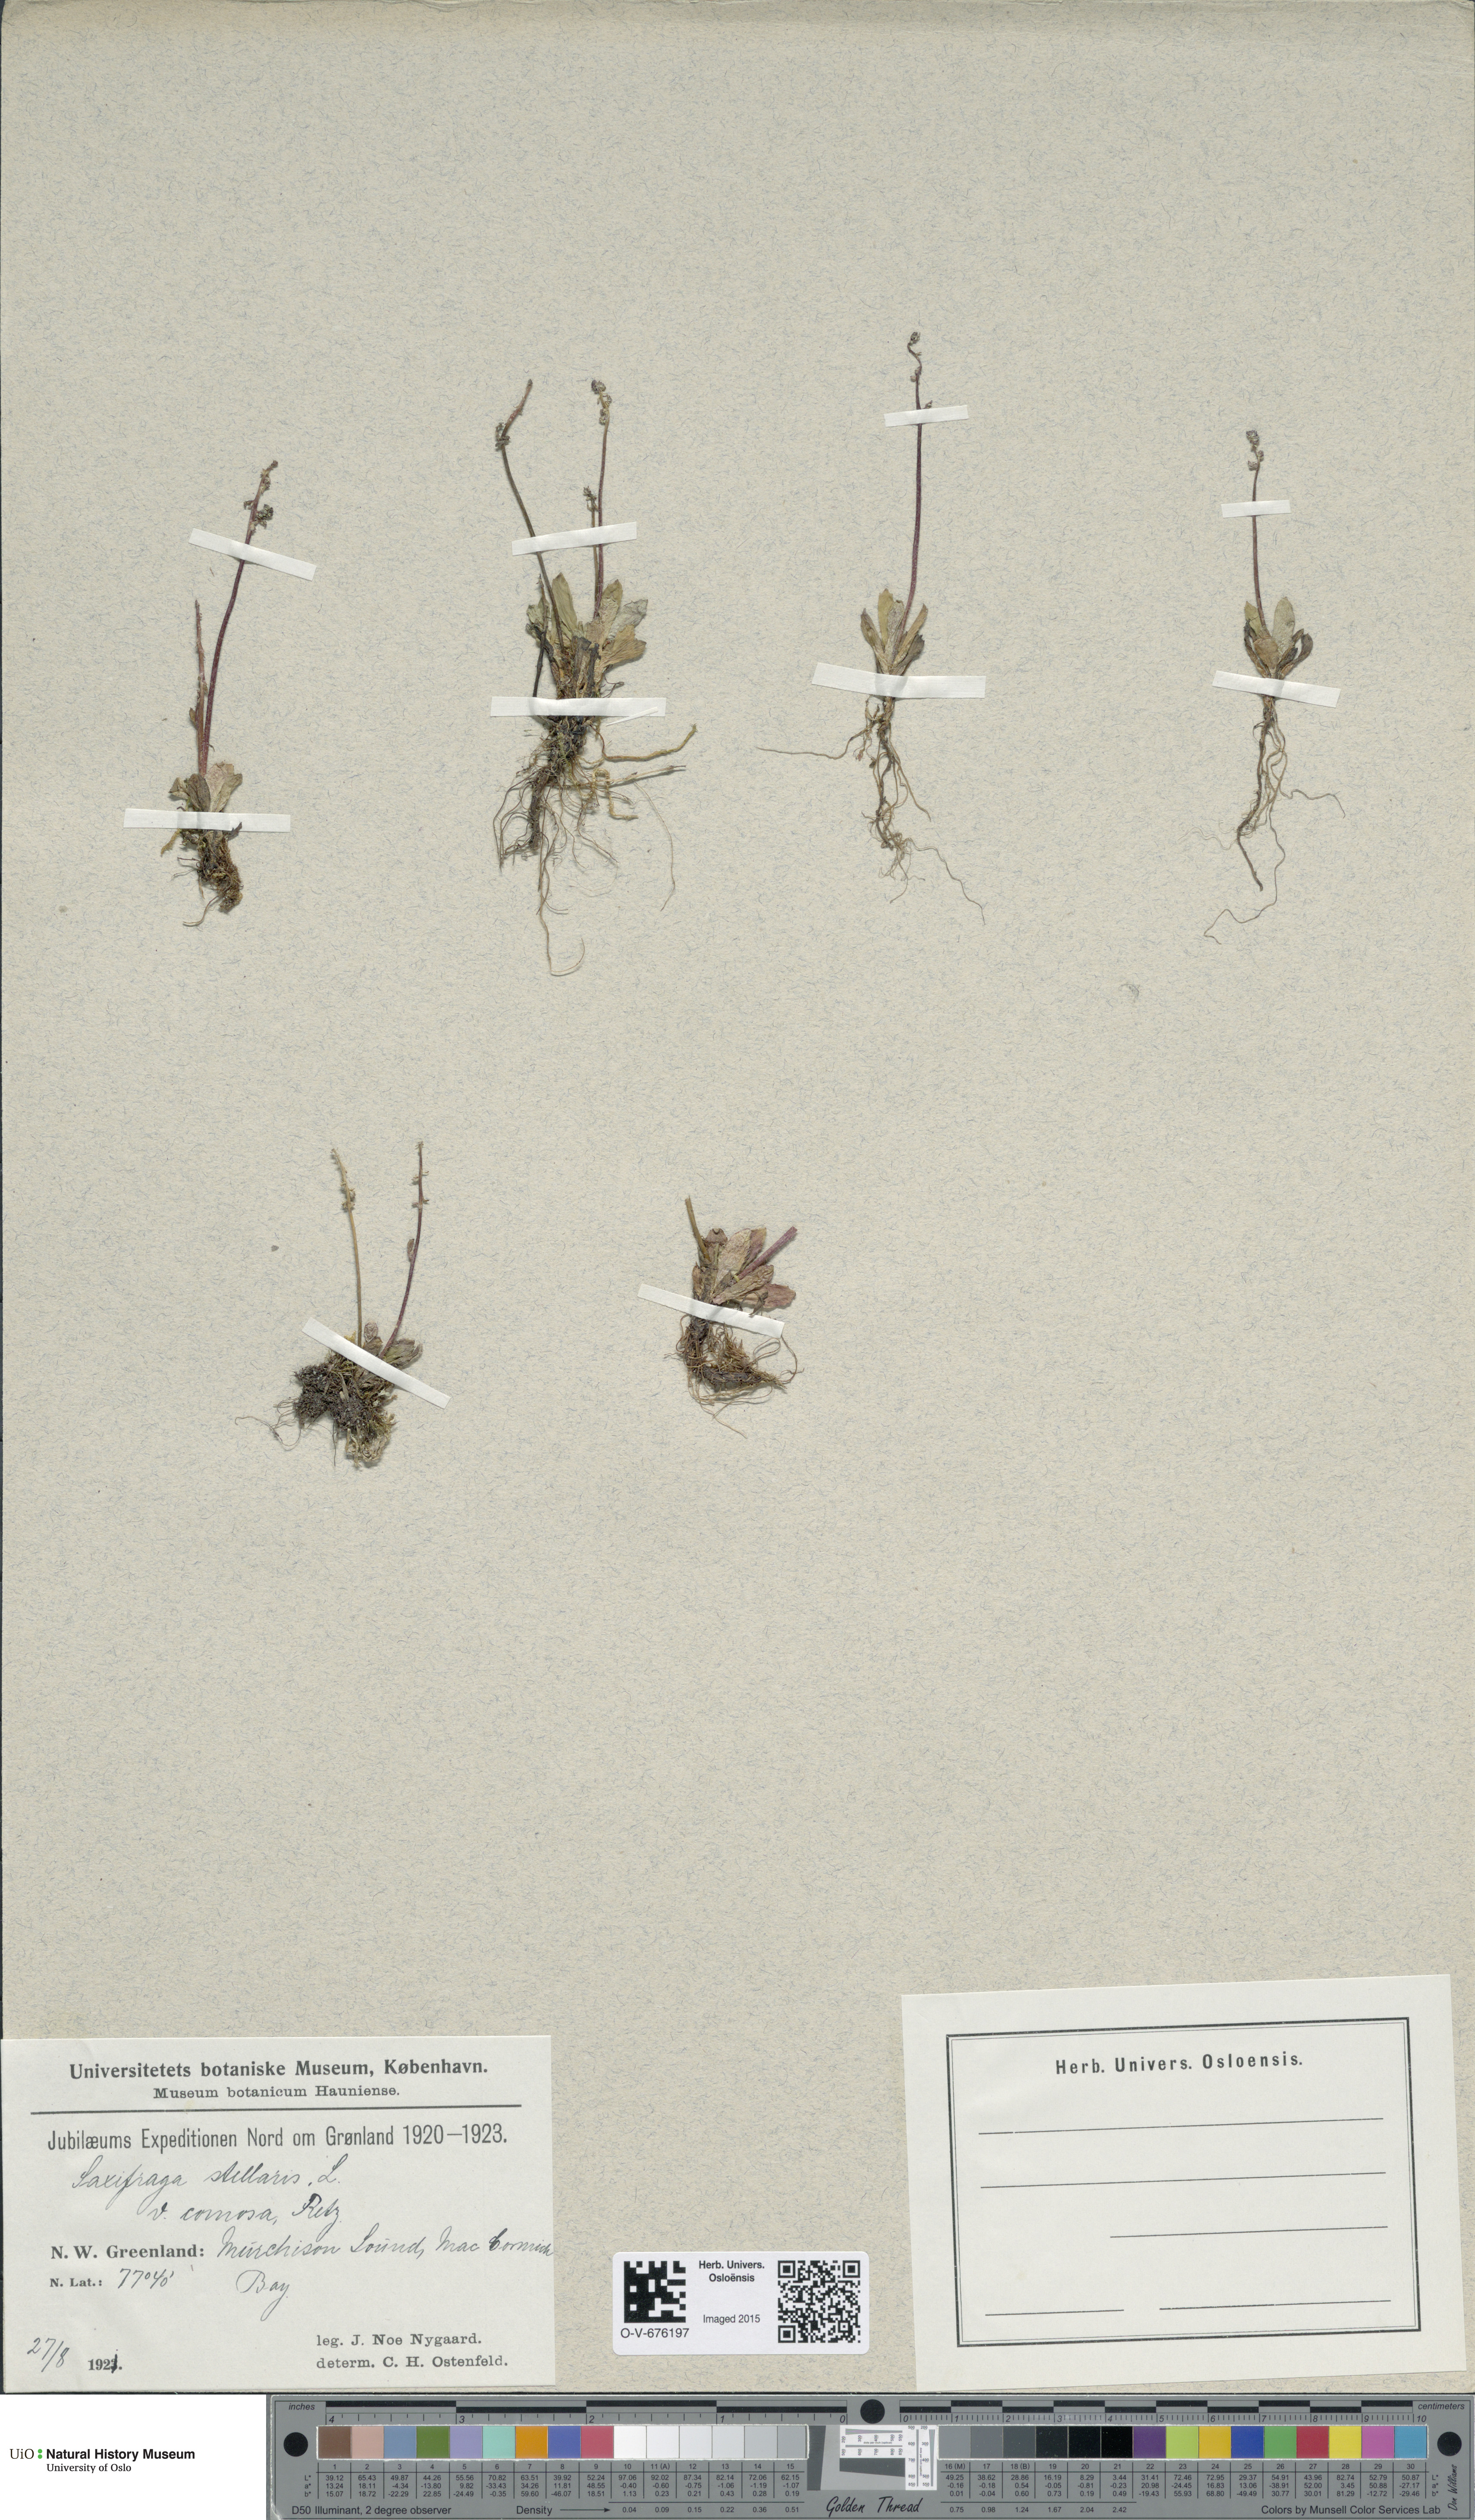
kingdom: Plantae
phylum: Tracheophyta
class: Magnoliopsida
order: Saxifragales
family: Saxifragaceae
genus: Micranthes
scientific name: Micranthes foliolosa
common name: Leafystem saxifrage
